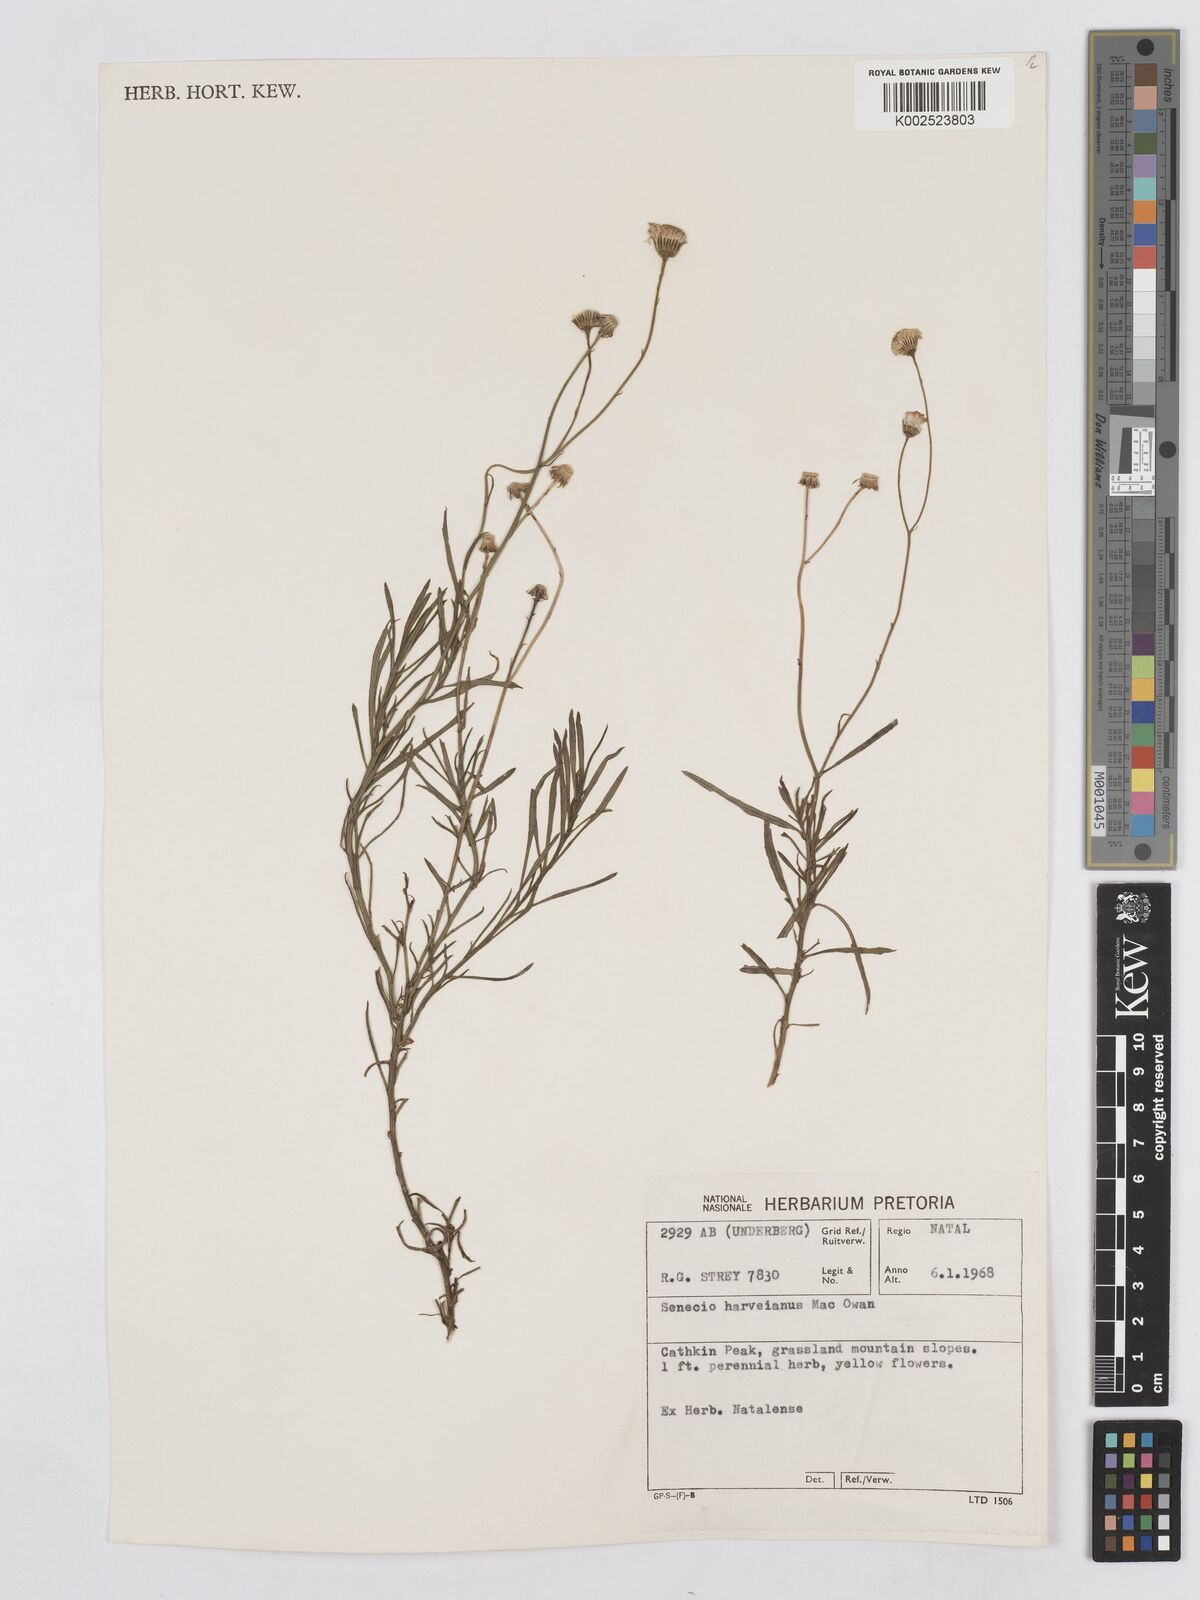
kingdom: Plantae
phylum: Tracheophyta
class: Magnoliopsida
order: Asterales
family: Asteraceae
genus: Senecio
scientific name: Senecio harveyanus
